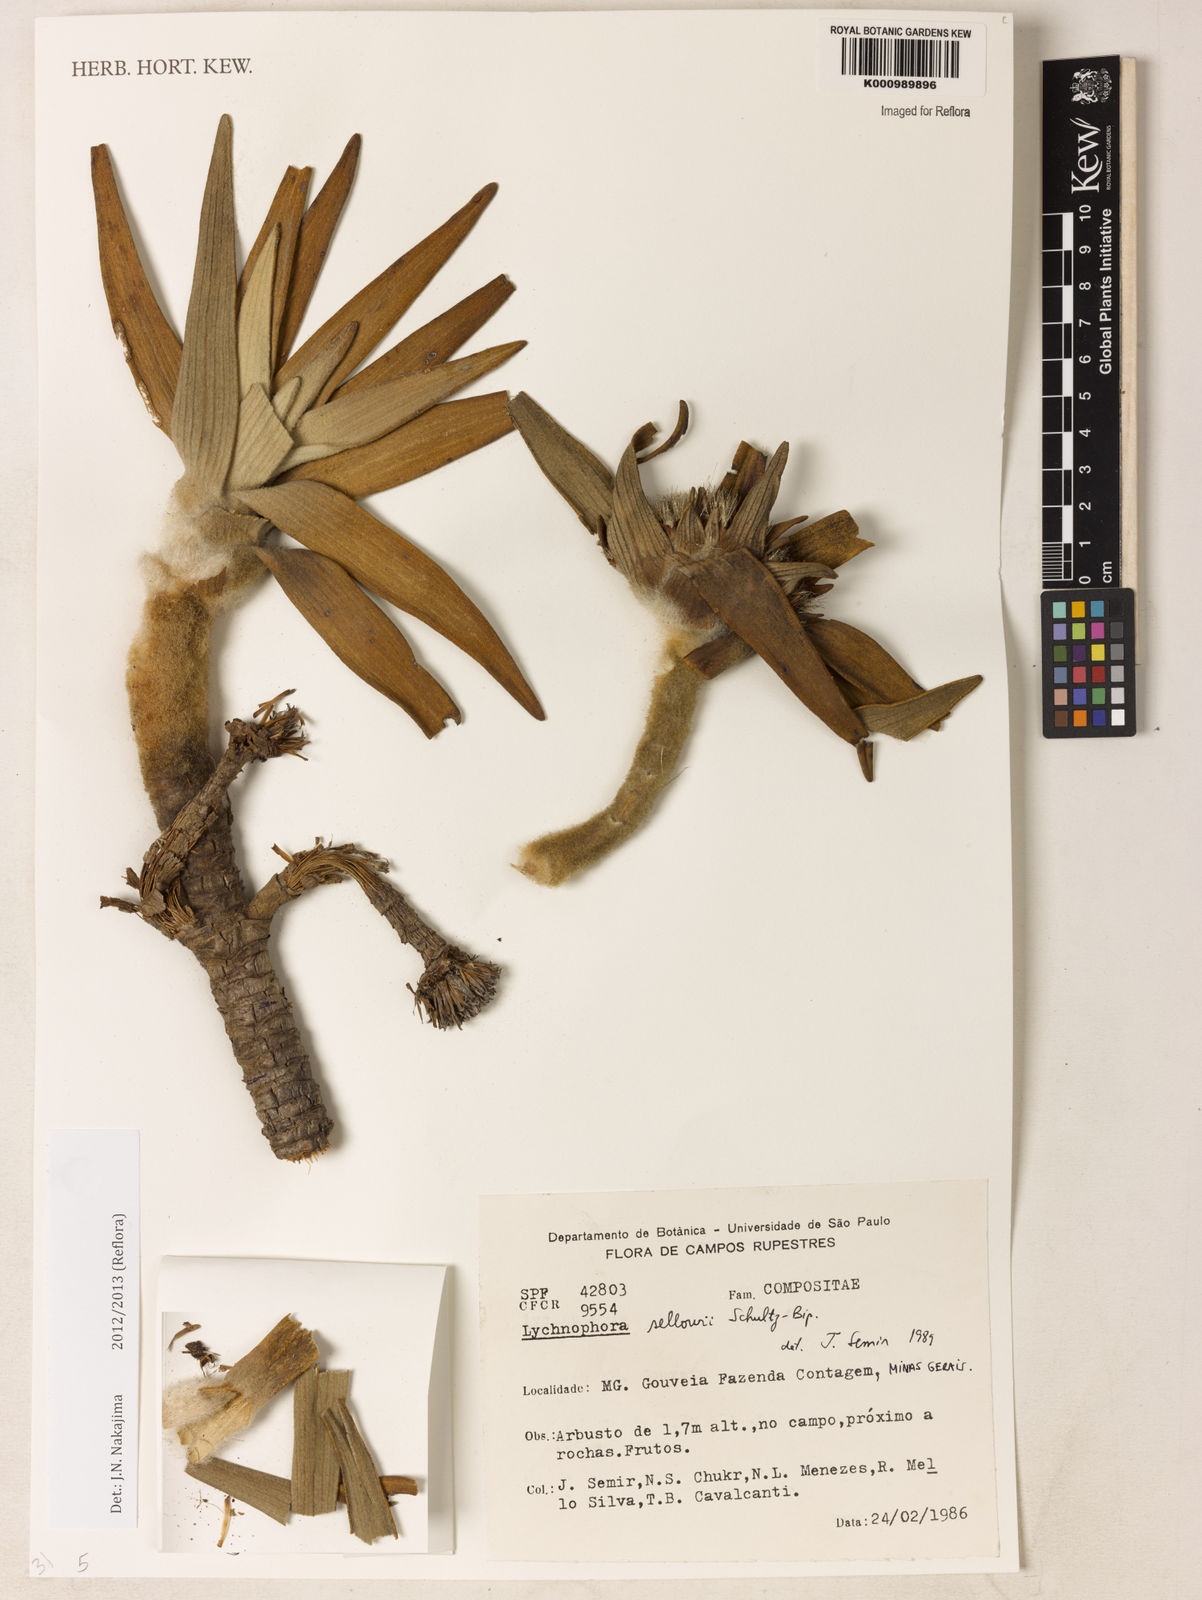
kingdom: Plantae
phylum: Tracheophyta
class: Magnoliopsida
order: Asterales
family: Asteraceae
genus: Lychnophora
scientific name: Lychnophora
